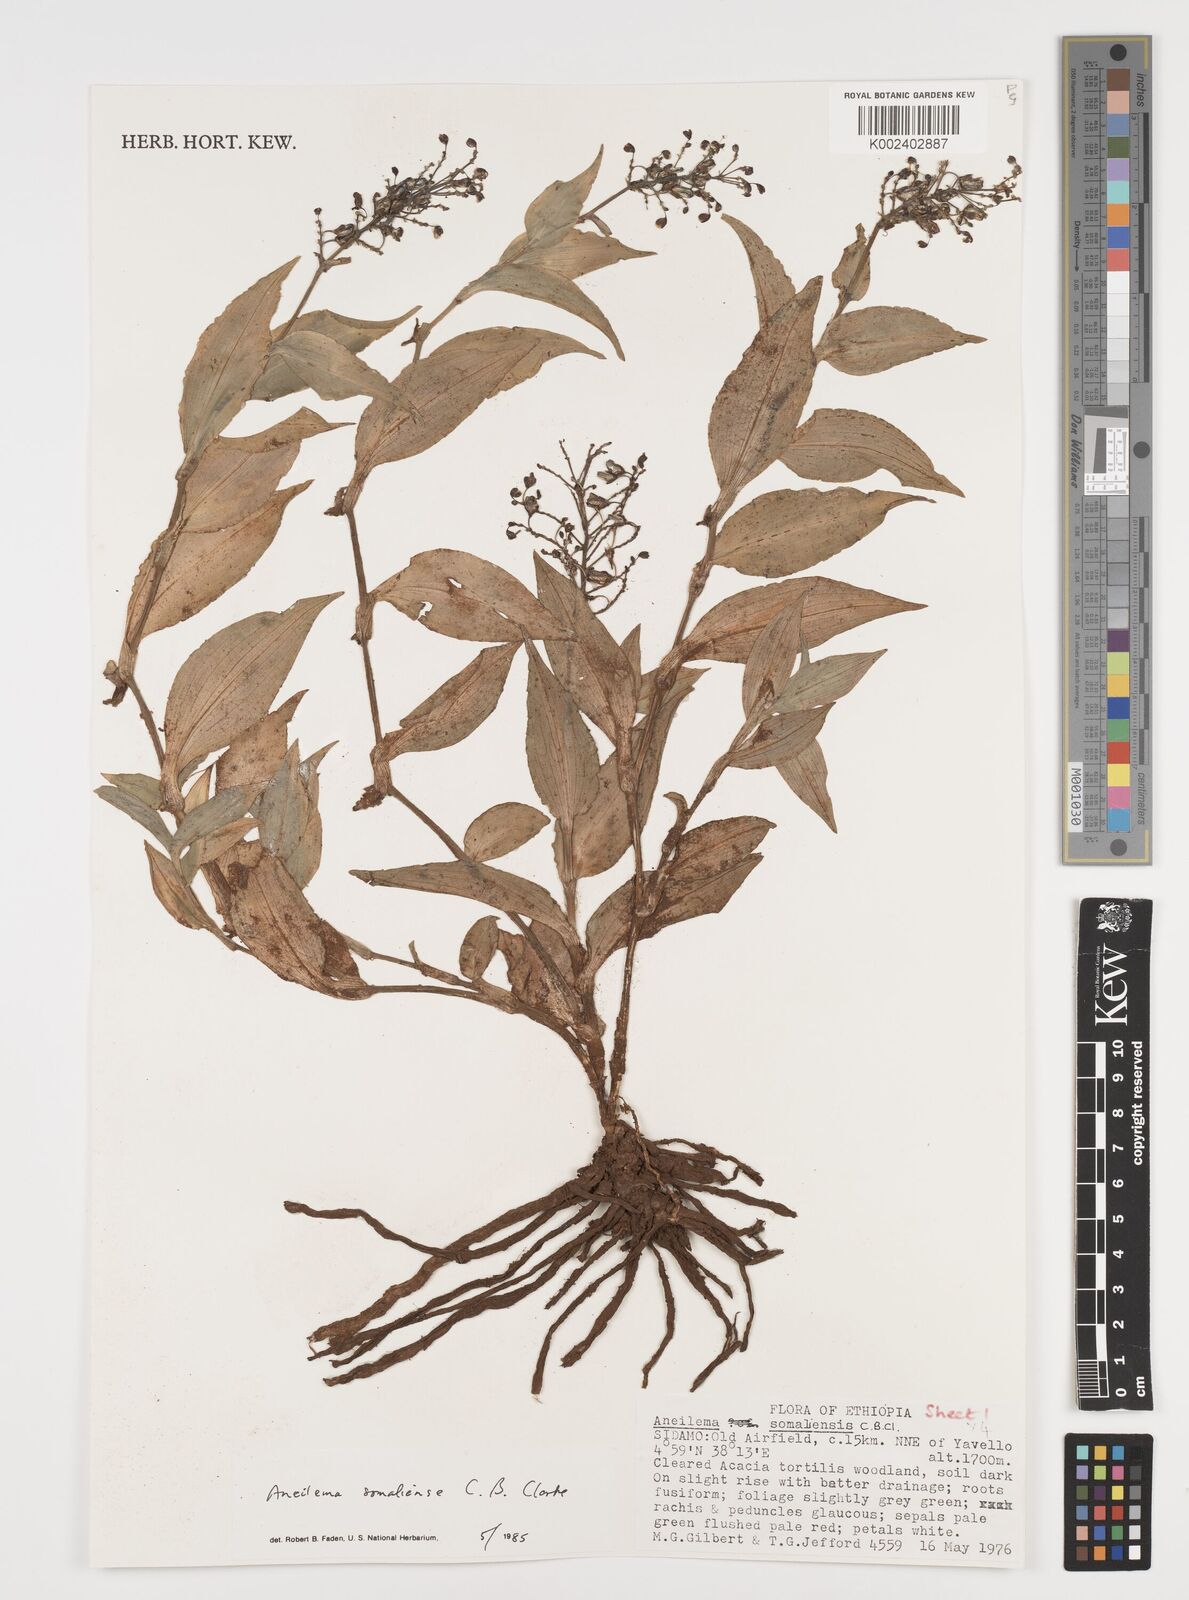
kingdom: Plantae
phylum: Tracheophyta
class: Liliopsida
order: Commelinales
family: Commelinaceae
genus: Aneilema
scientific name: Aneilema somaliense
